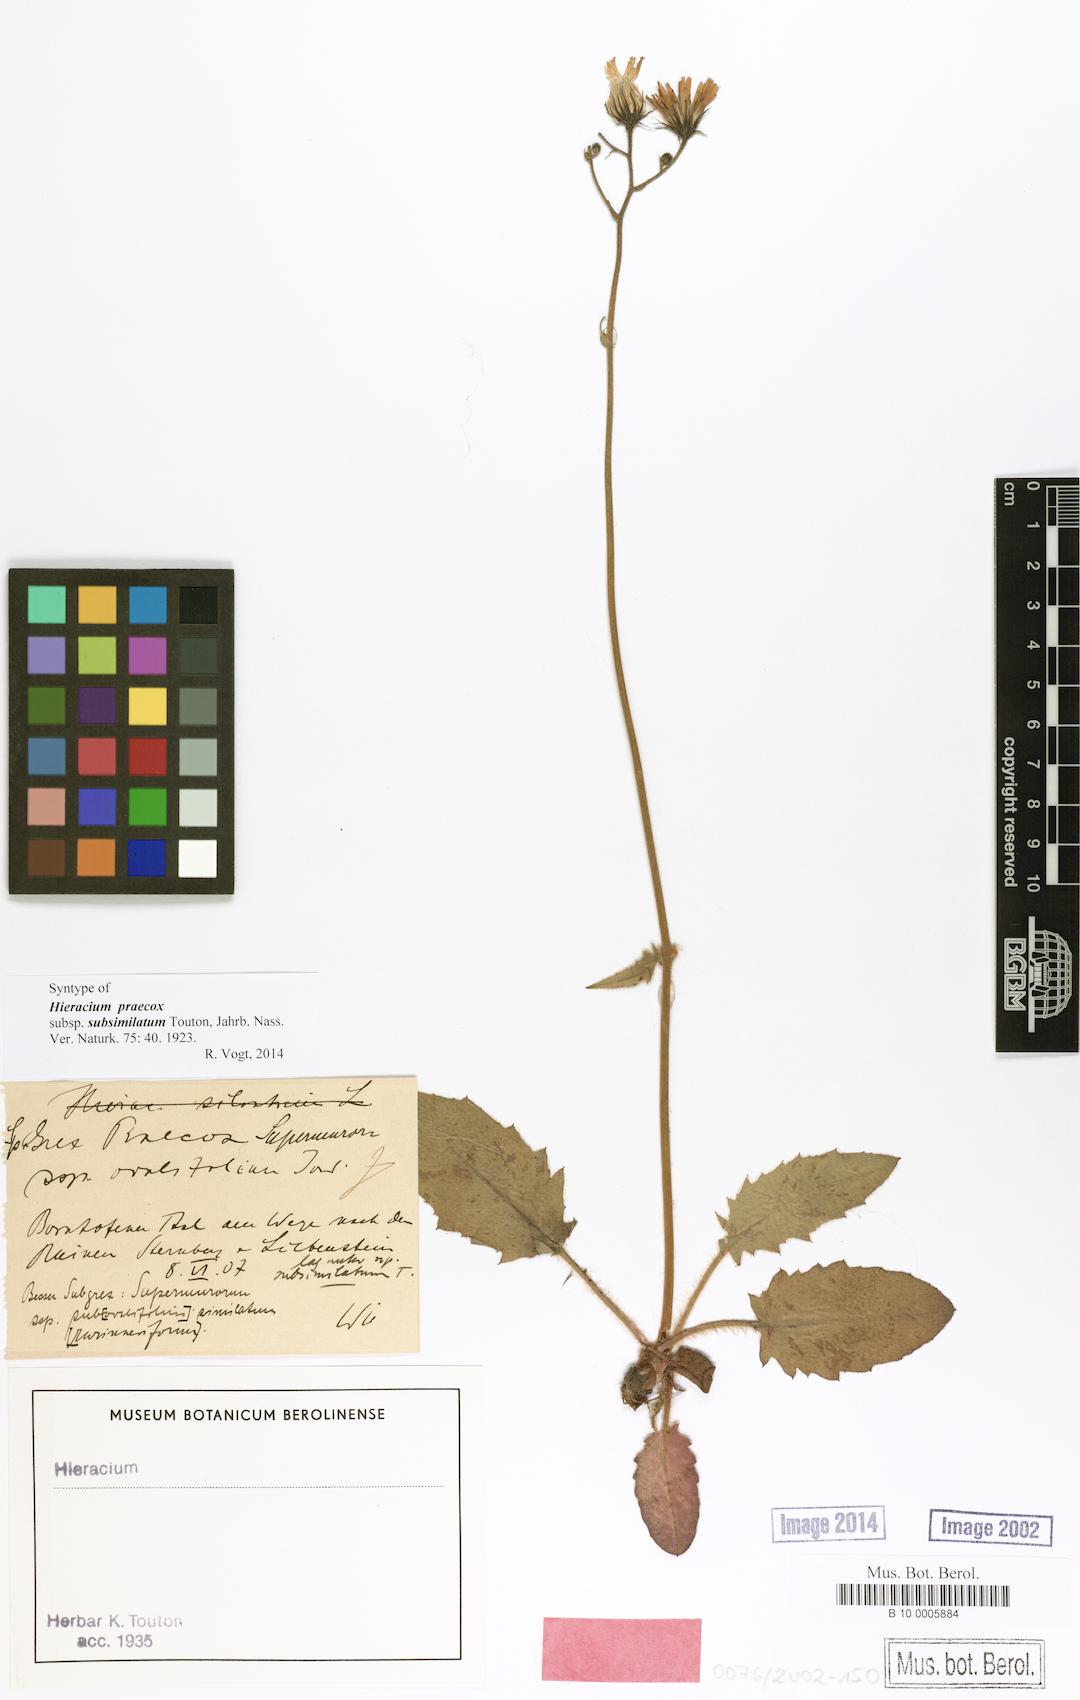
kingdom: Plantae
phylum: Tracheophyta
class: Magnoliopsida
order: Asterales
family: Asteraceae
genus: Hieracium
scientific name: Hieracium glaucinum
